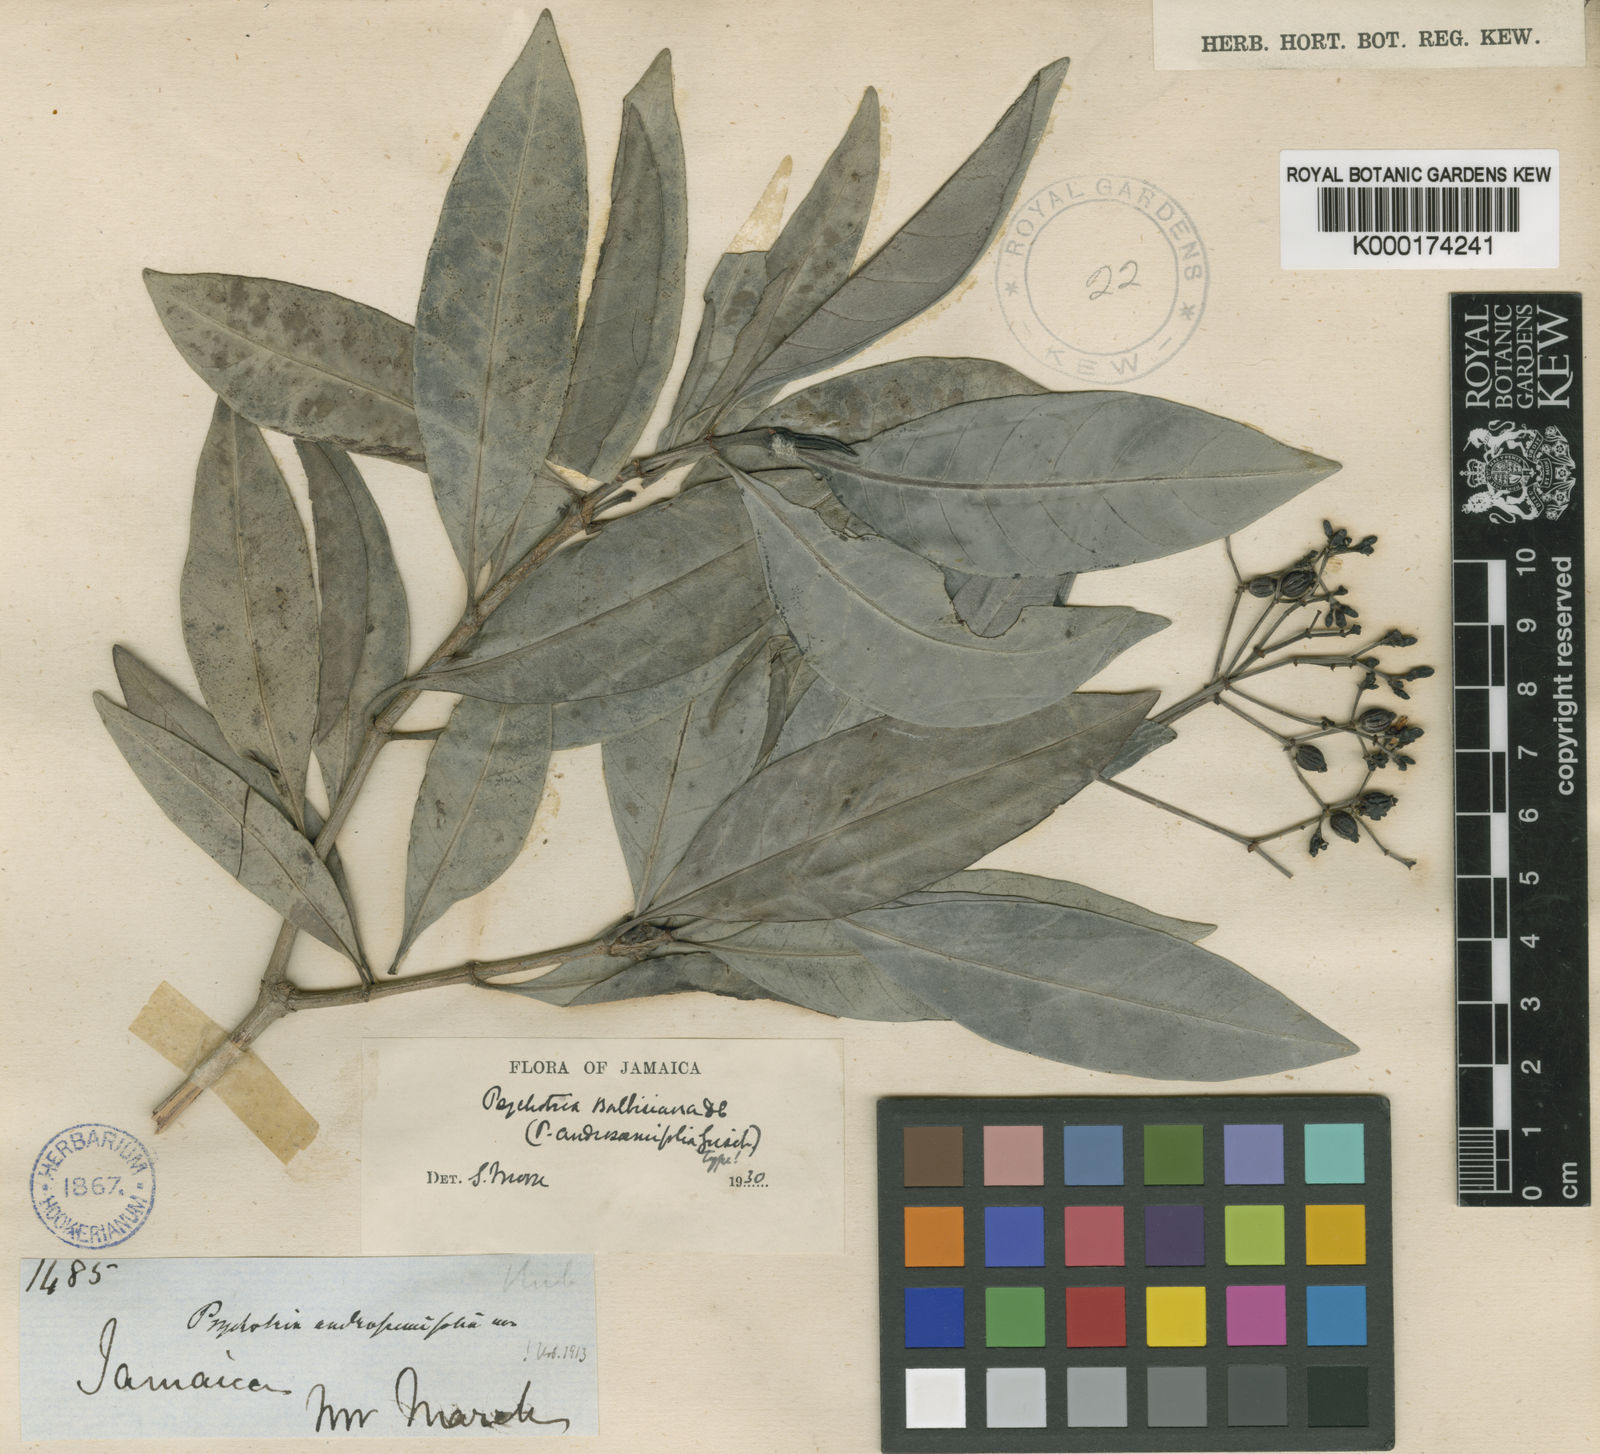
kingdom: Plantae
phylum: Tracheophyta
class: Magnoliopsida
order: Gentianales
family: Rubiaceae
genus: Psychotria
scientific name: Psychotria balbisiana
